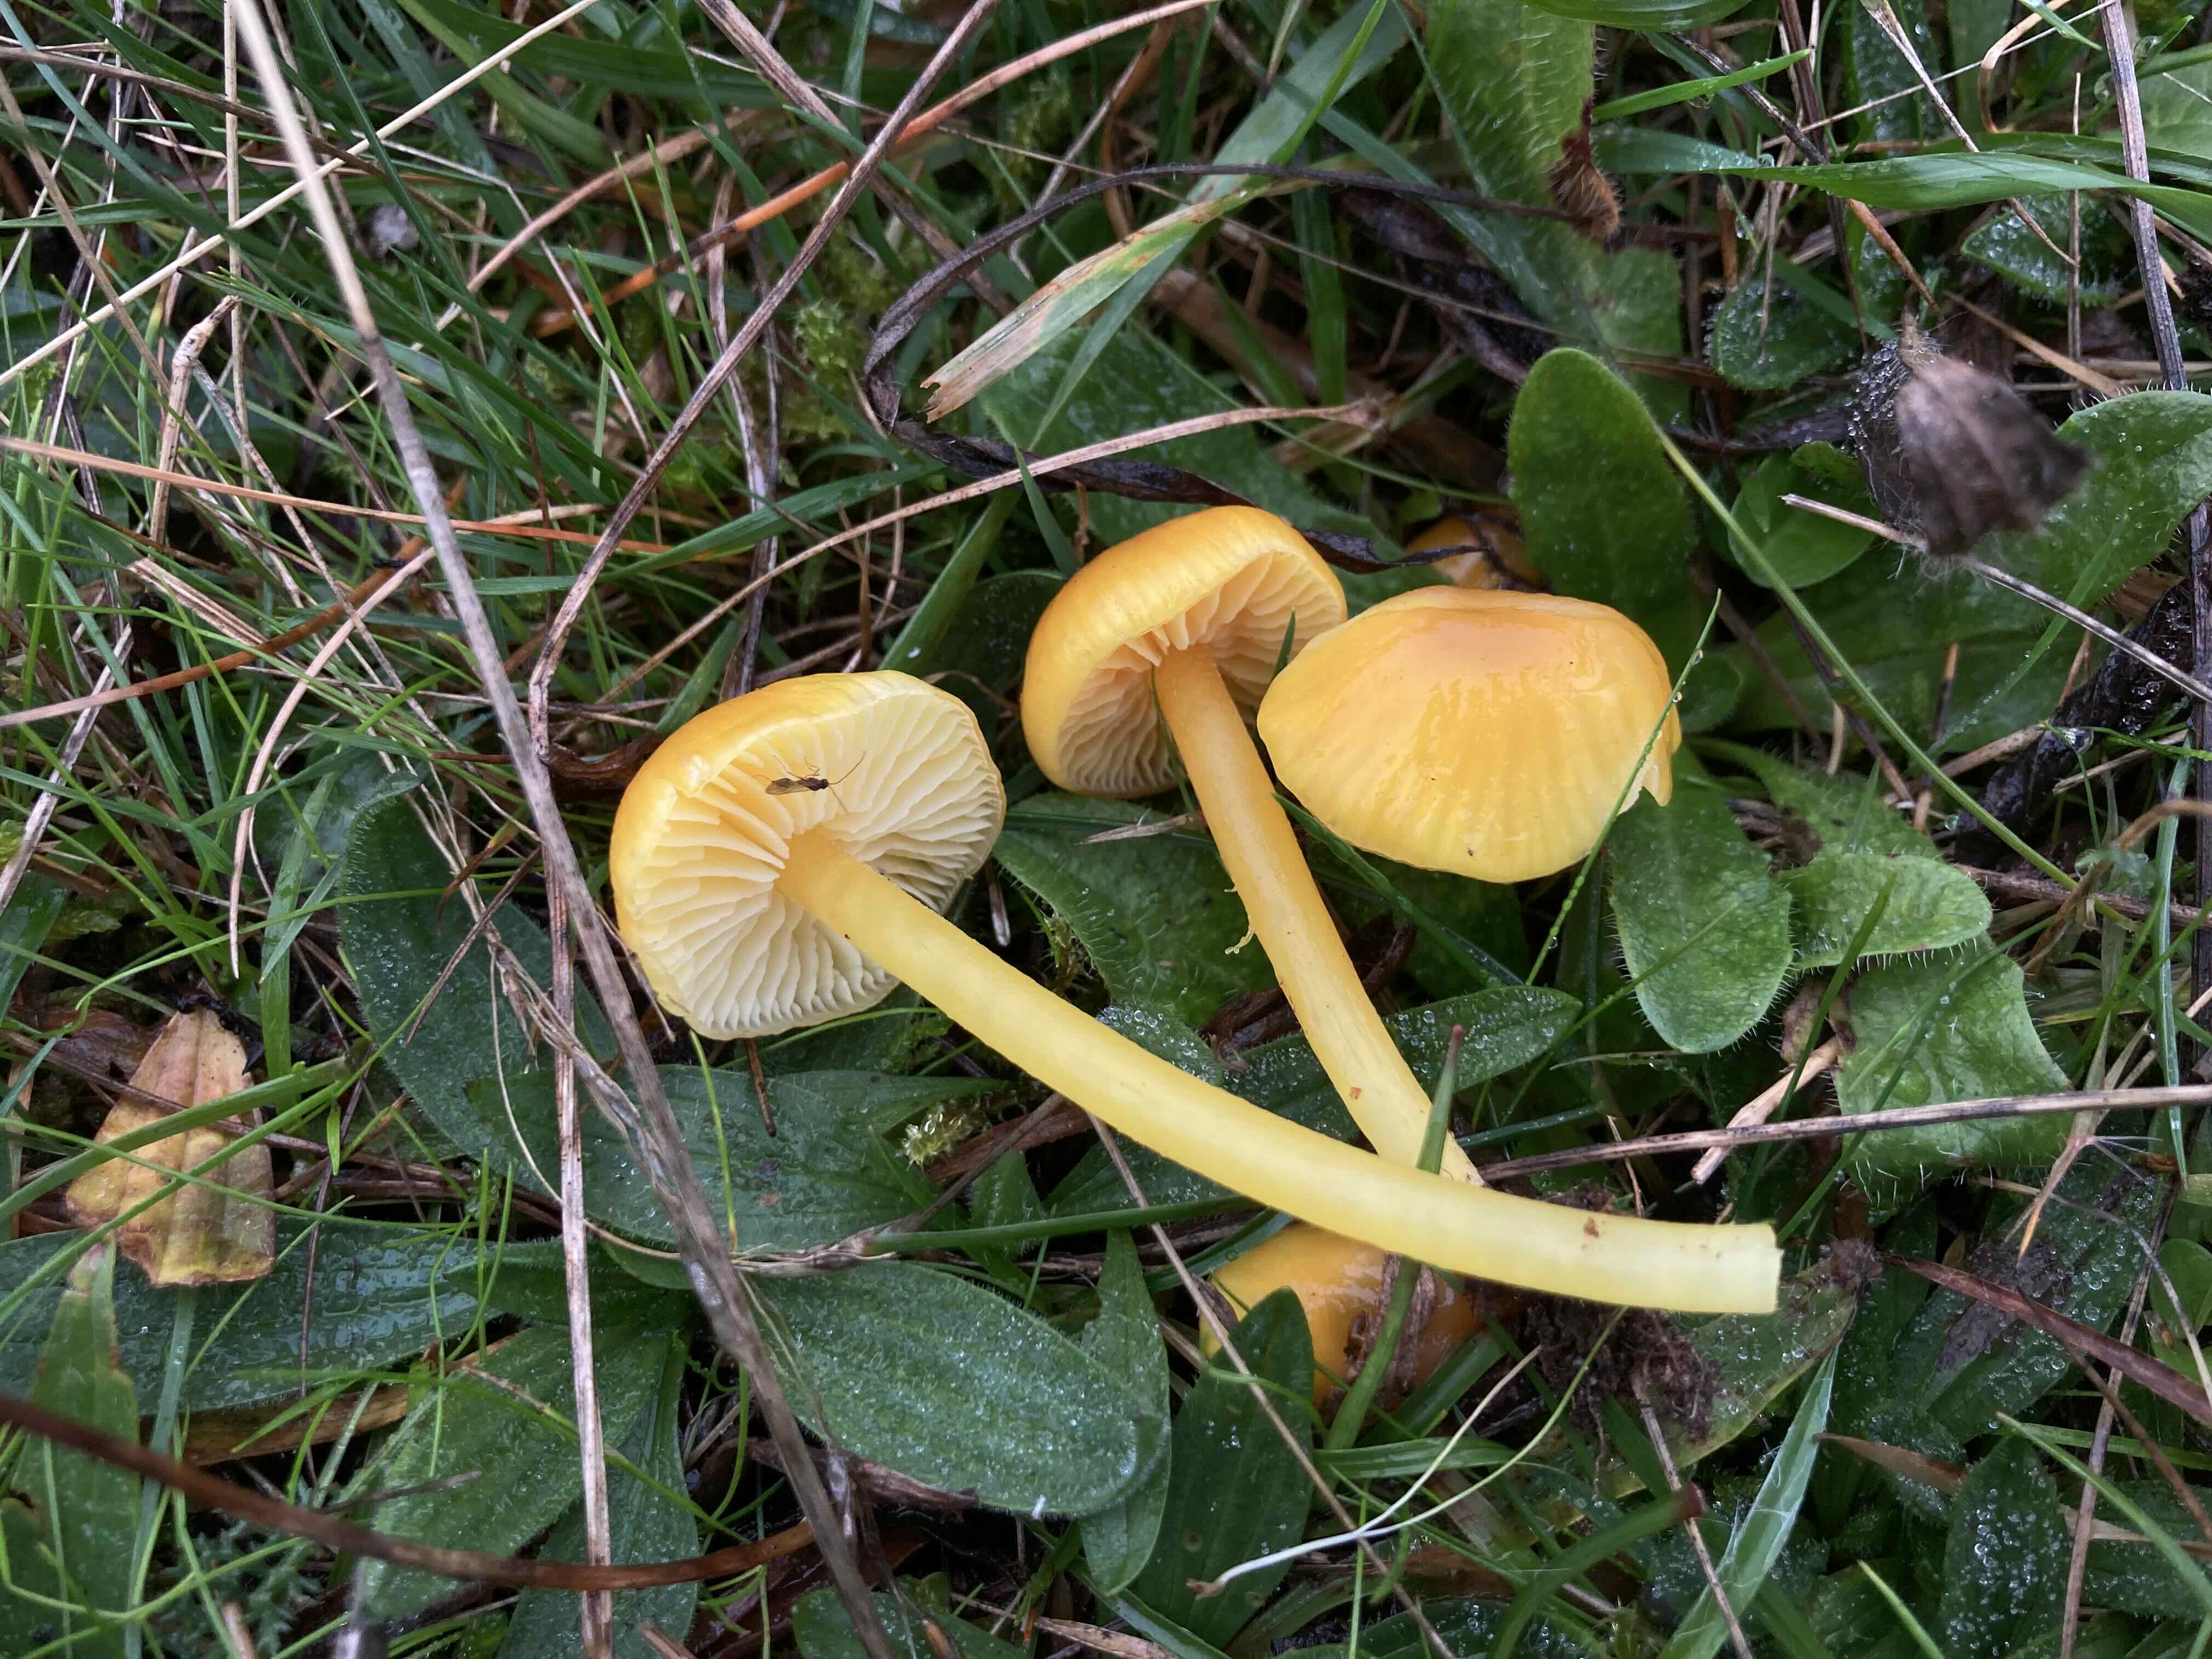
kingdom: Fungi
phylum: Basidiomycota
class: Agaricomycetes
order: Agaricales
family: Hygrophoraceae
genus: Hygrocybe
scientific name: Hygrocybe chlorophana
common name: gul vokshat
